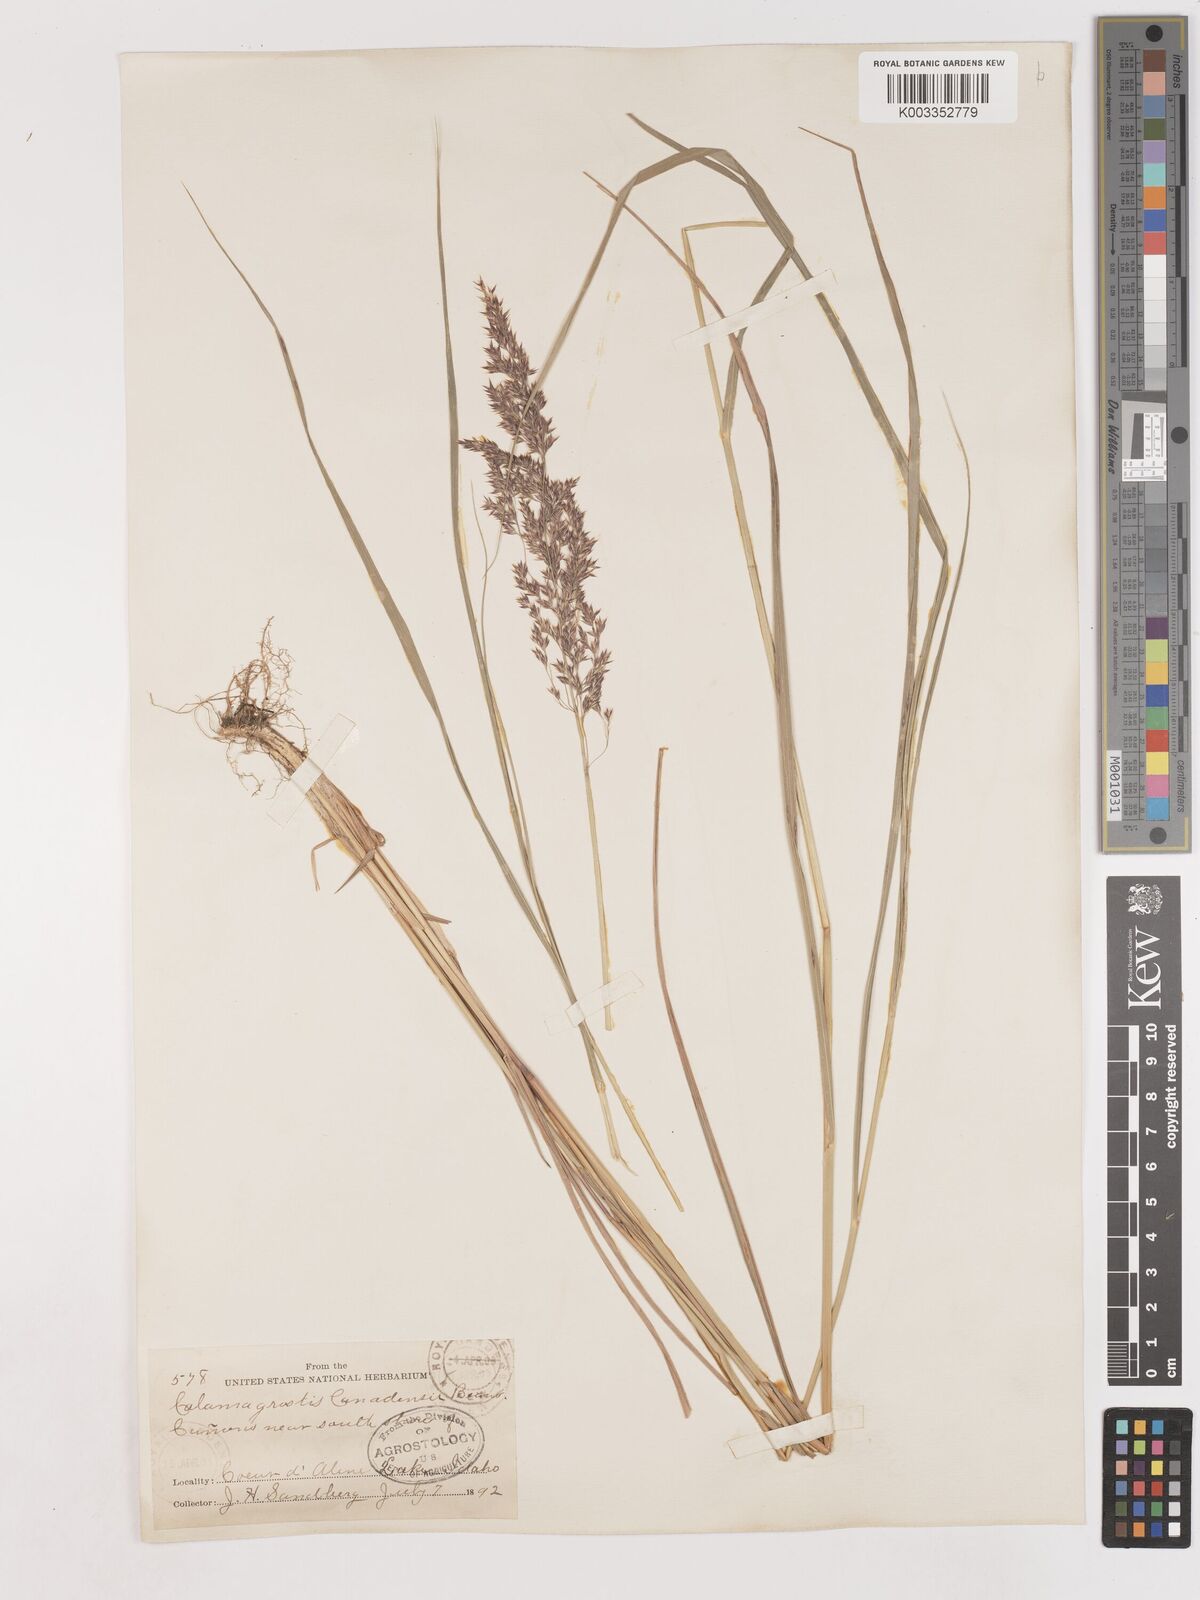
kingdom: Plantae
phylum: Tracheophyta
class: Liliopsida
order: Poales
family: Poaceae
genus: Calamagrostis
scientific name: Calamagrostis canadensis
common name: Canada bluejoint
